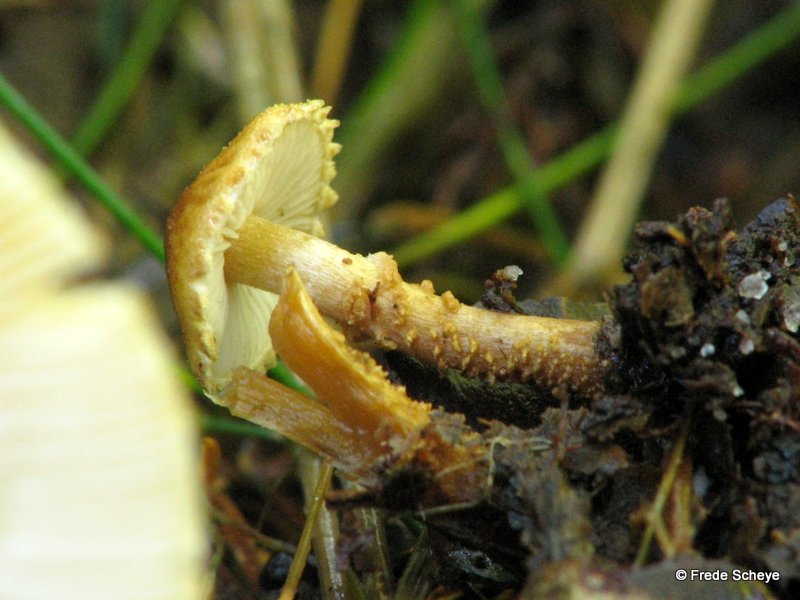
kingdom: Fungi
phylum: Basidiomycota
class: Agaricomycetes
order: Agaricales
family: Tricholomataceae
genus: Cystoderma
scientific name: Cystoderma amianthinum
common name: okkergul grynhat
